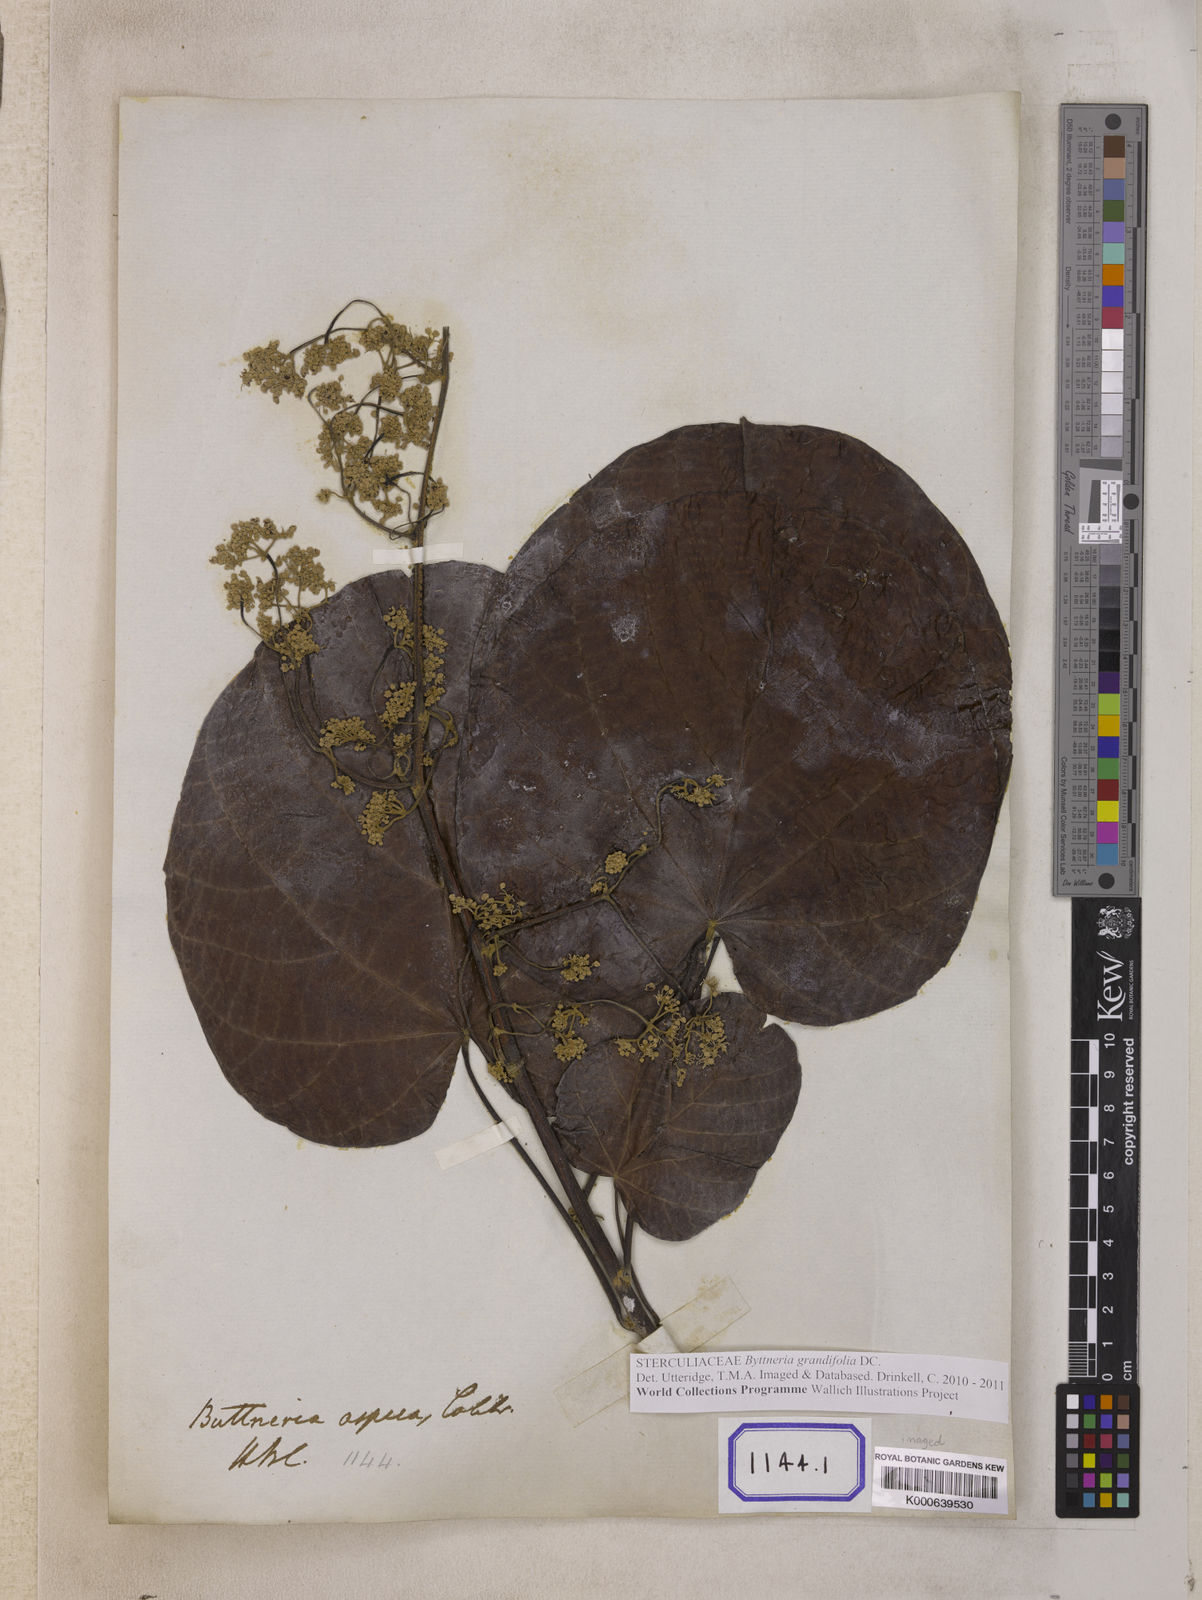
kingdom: Plantae
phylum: Tracheophyta
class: Magnoliopsida
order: Malvales
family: Malvaceae
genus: Byttneria
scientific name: Byttneria
